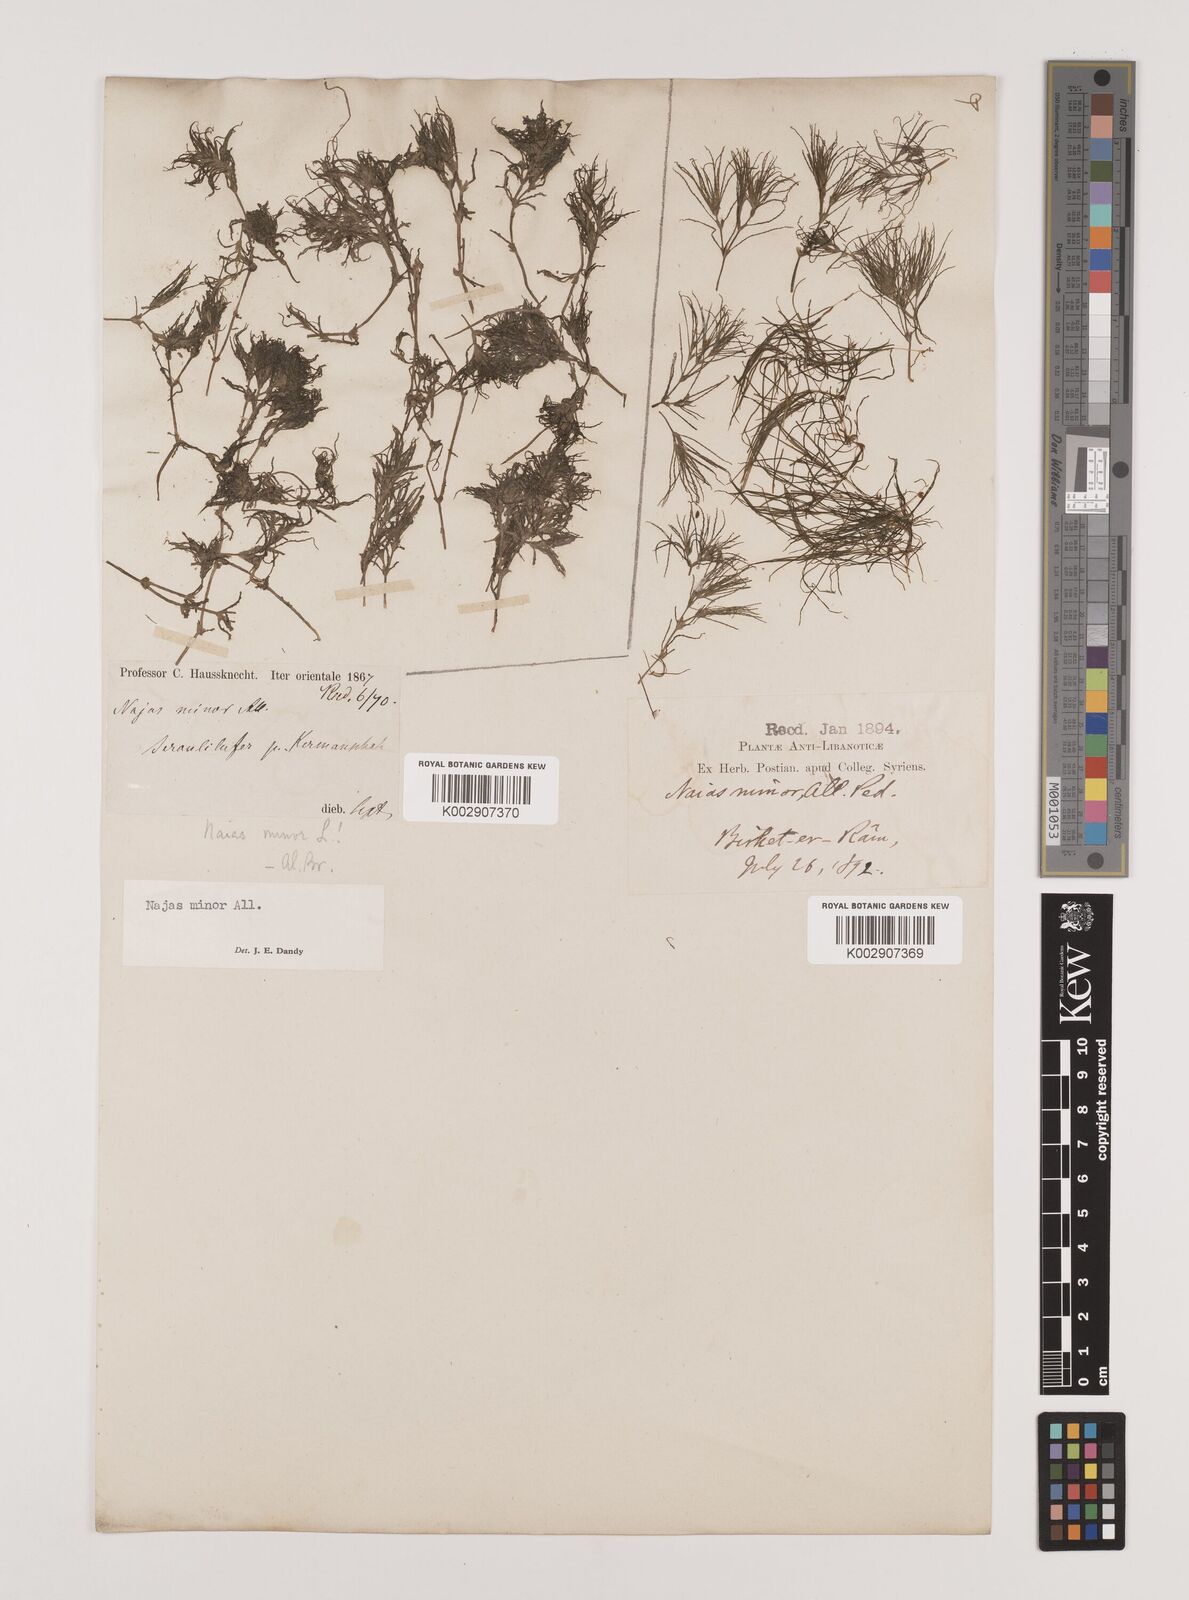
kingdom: Plantae
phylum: Tracheophyta
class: Liliopsida
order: Alismatales
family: Hydrocharitaceae
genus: Najas
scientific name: Najas minor
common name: Brittle naiad
